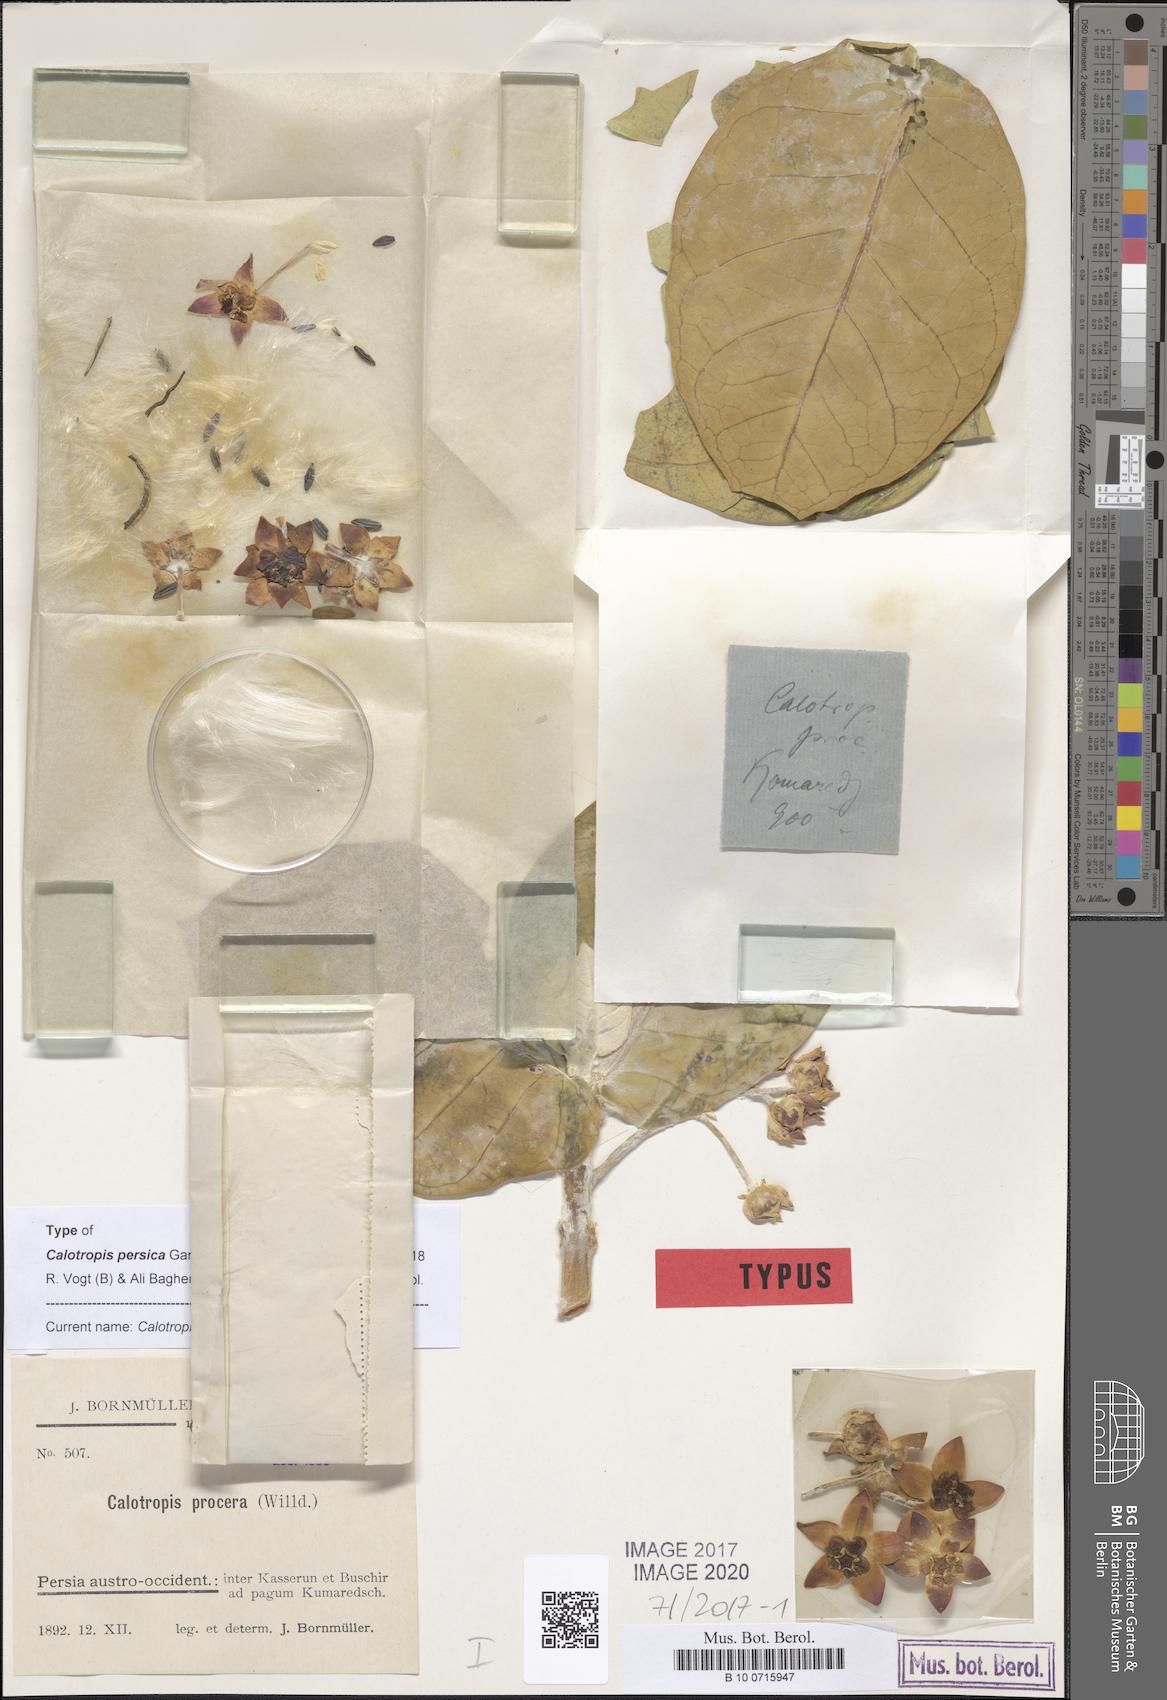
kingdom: Plantae
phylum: Tracheophyta
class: Magnoliopsida
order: Gentianales
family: Apocynaceae
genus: Calotropis
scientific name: Calotropis procera
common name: Roostertree
